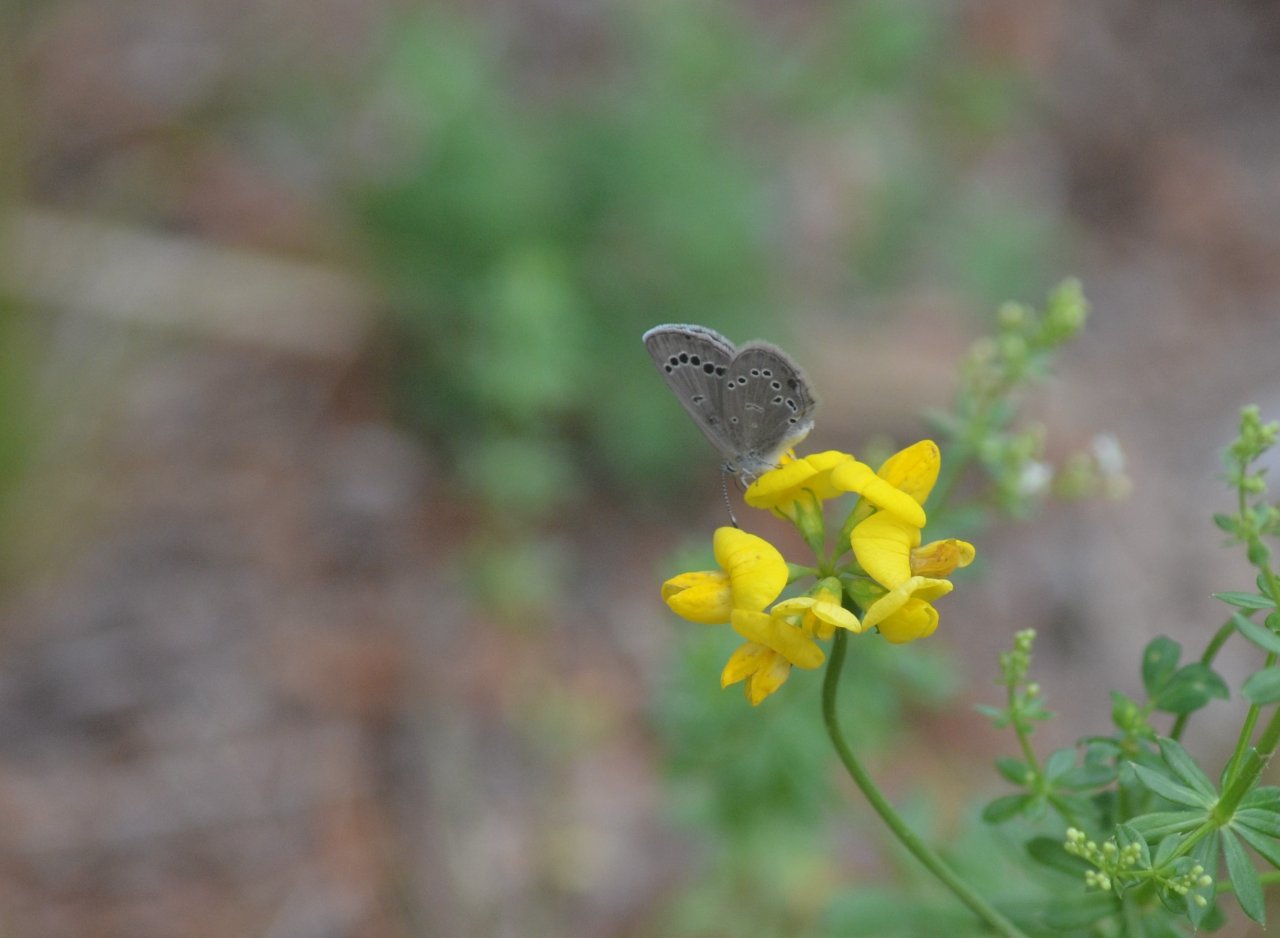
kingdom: Animalia
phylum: Arthropoda
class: Insecta
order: Lepidoptera
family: Lycaenidae
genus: Glaucopsyche
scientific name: Glaucopsyche lygdamus
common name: Silvery Blue
